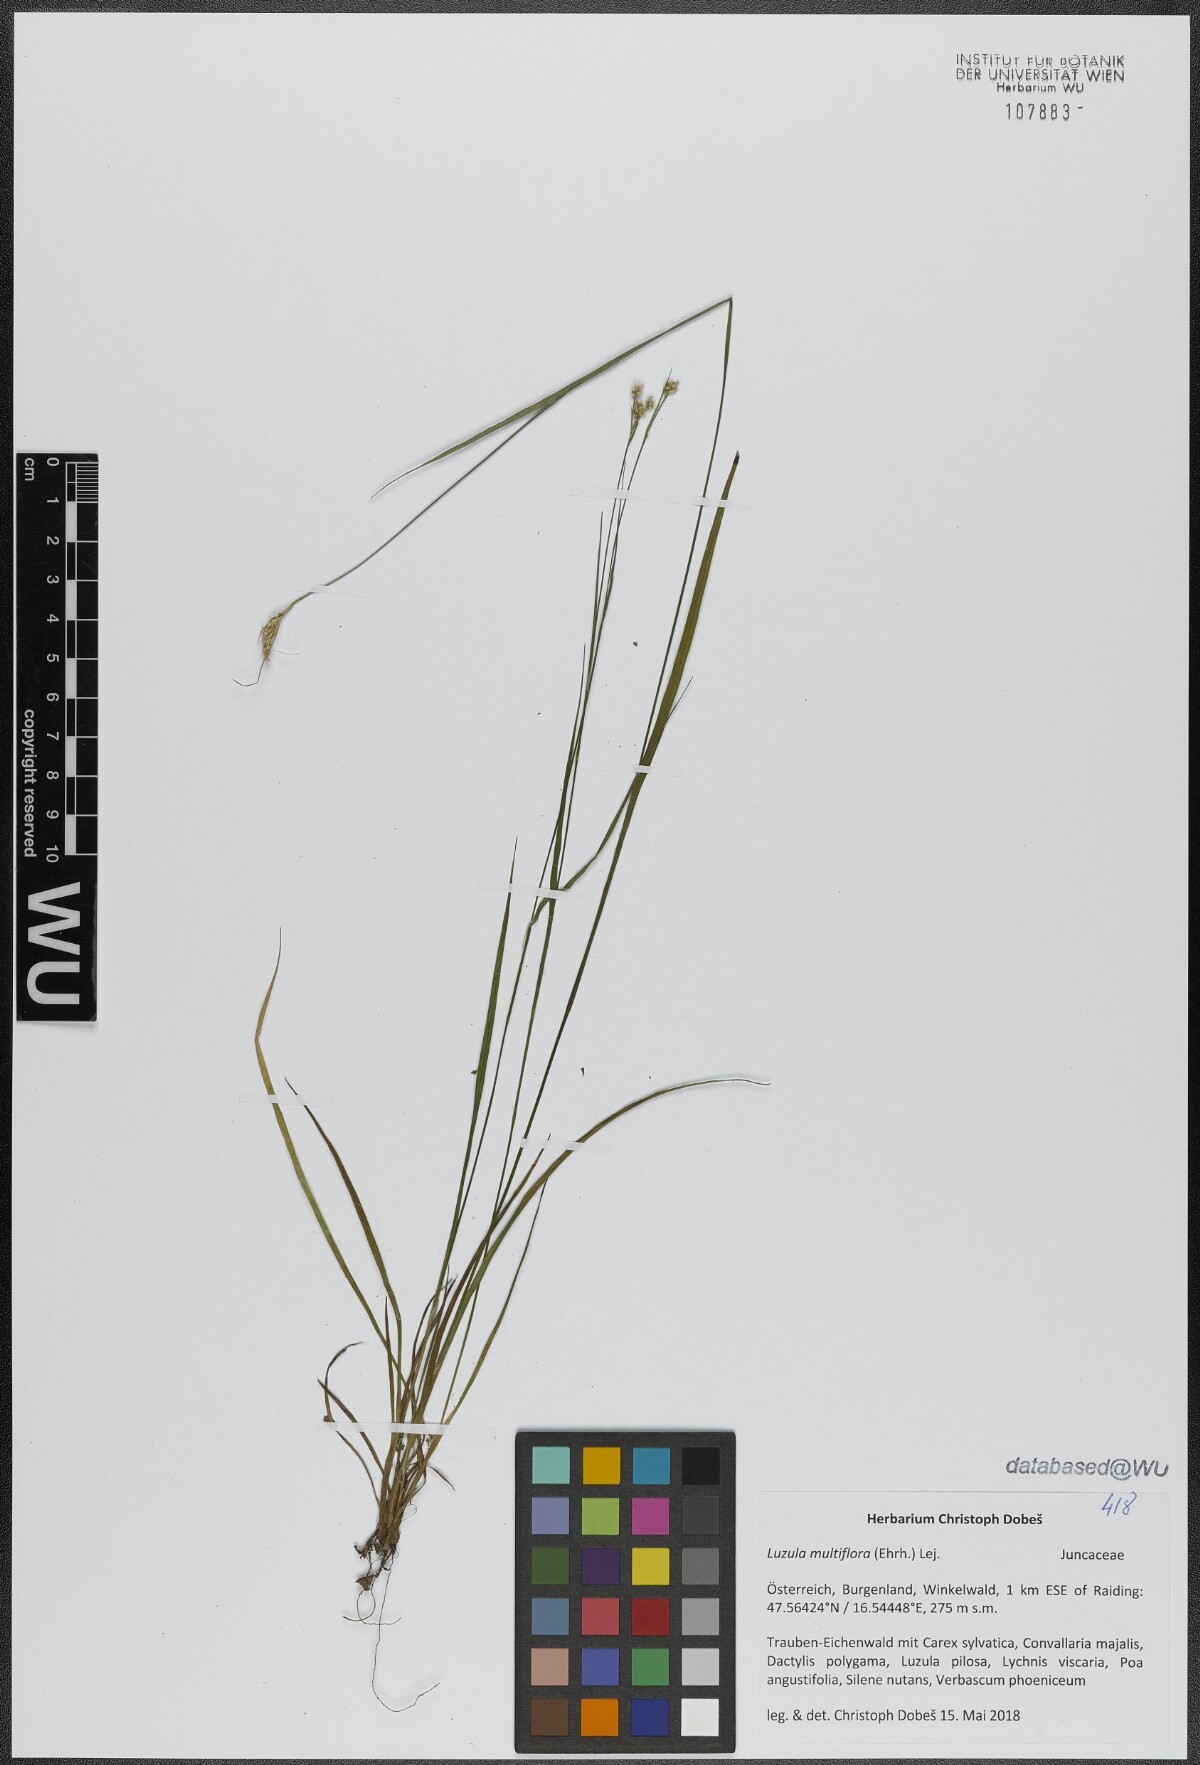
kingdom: Plantae
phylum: Tracheophyta
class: Liliopsida
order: Poales
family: Juncaceae
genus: Luzula
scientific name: Luzula multiflora
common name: Heath wood-rush
